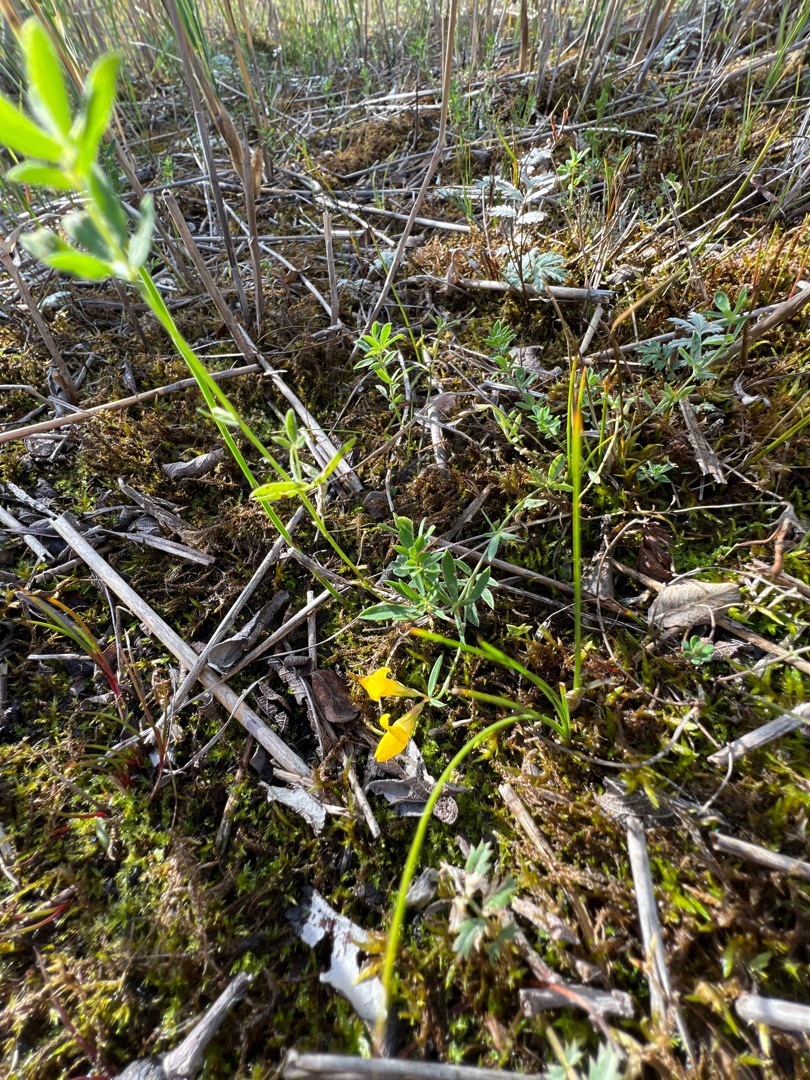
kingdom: Plantae
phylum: Tracheophyta
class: Magnoliopsida
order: Fabales
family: Fabaceae
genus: Lotus
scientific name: Lotus tenuis
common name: Smalbladet kællingetand
